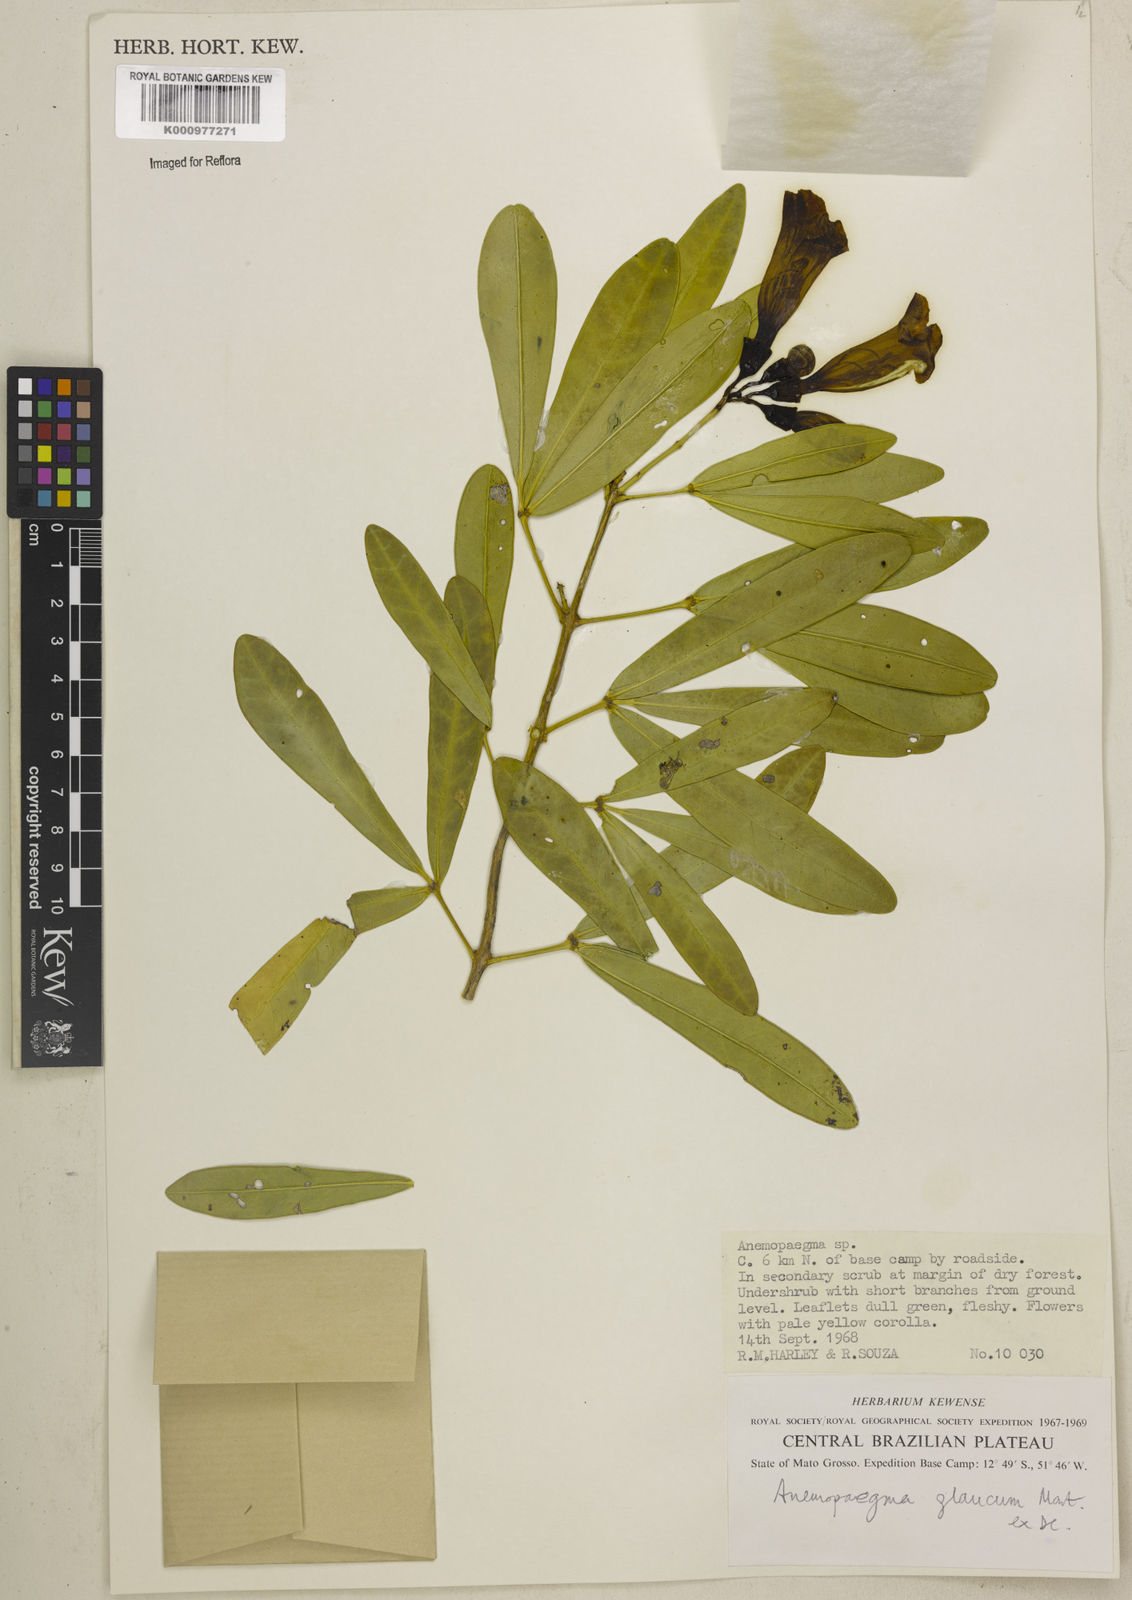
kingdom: Plantae
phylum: Tracheophyta
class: Magnoliopsida
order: Lamiales
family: Bignoniaceae
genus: Anemopaegma
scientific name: Anemopaegma glaucum
